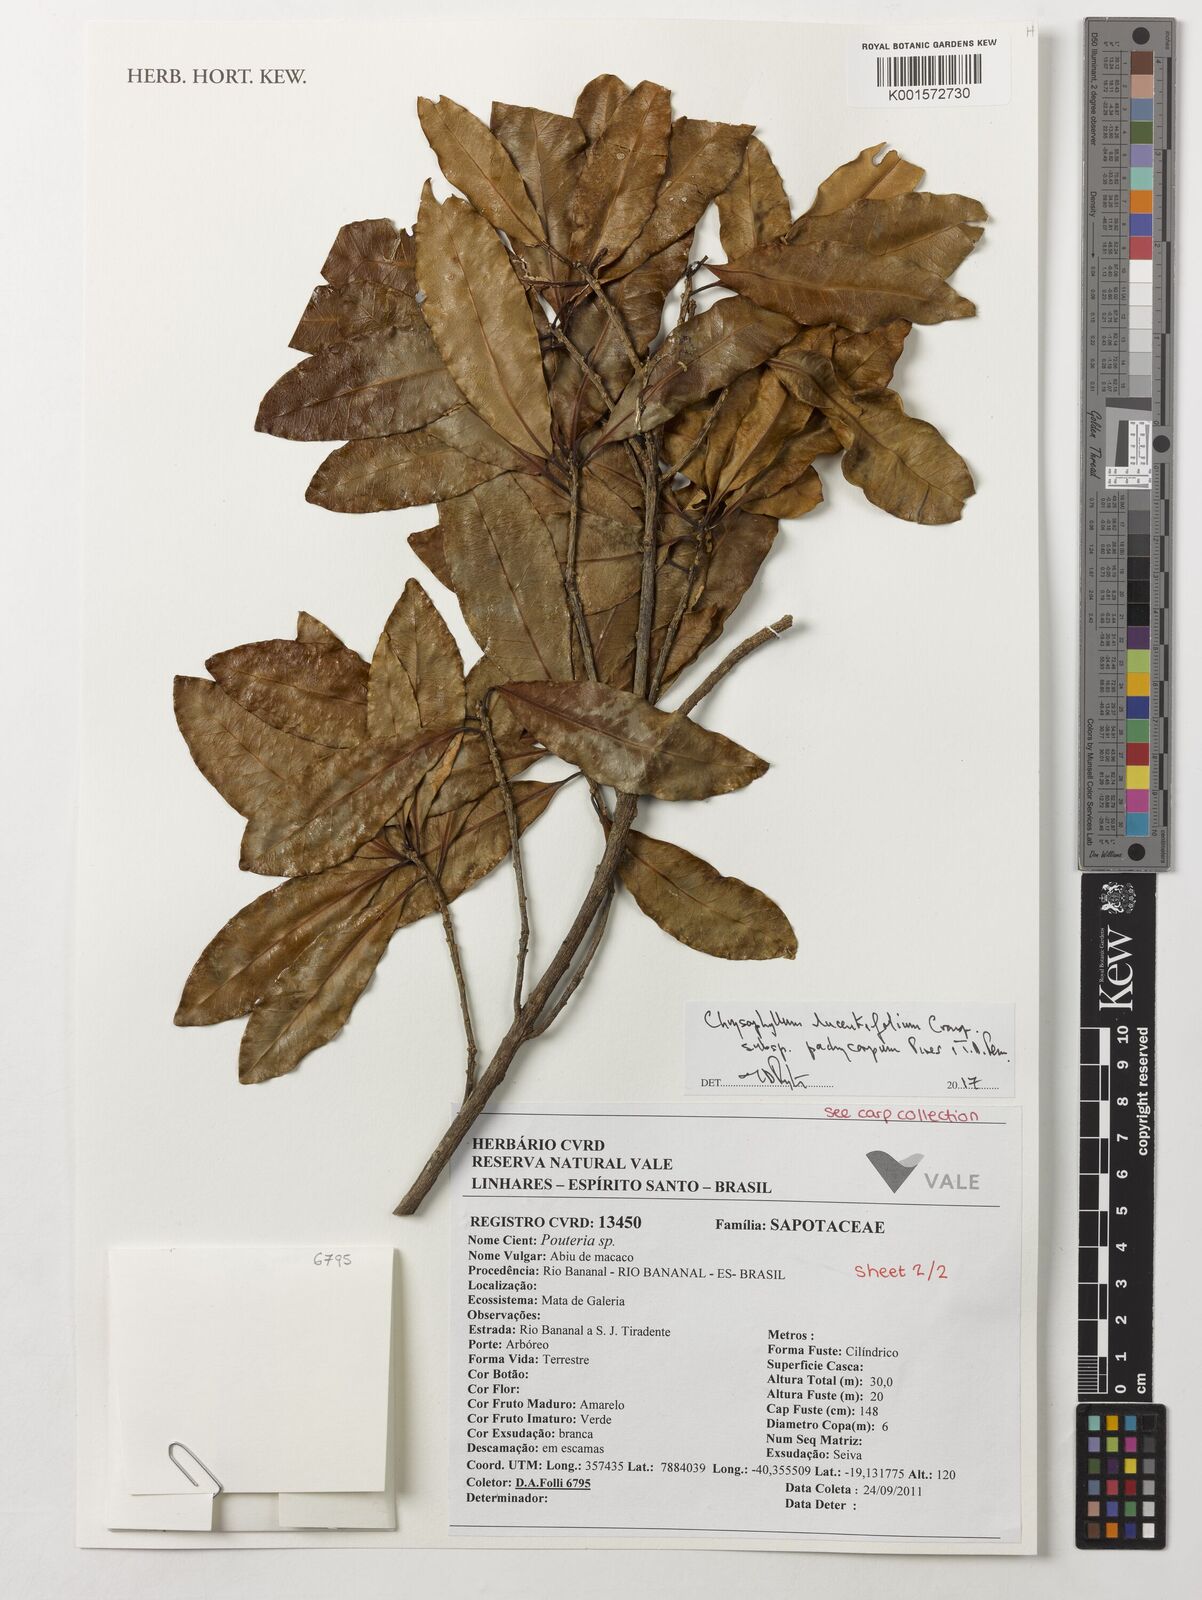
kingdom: Plantae
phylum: Tracheophyta
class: Magnoliopsida
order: Ericales
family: Sapotaceae
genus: Chrysophyllum
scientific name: Chrysophyllum lucentifolium
